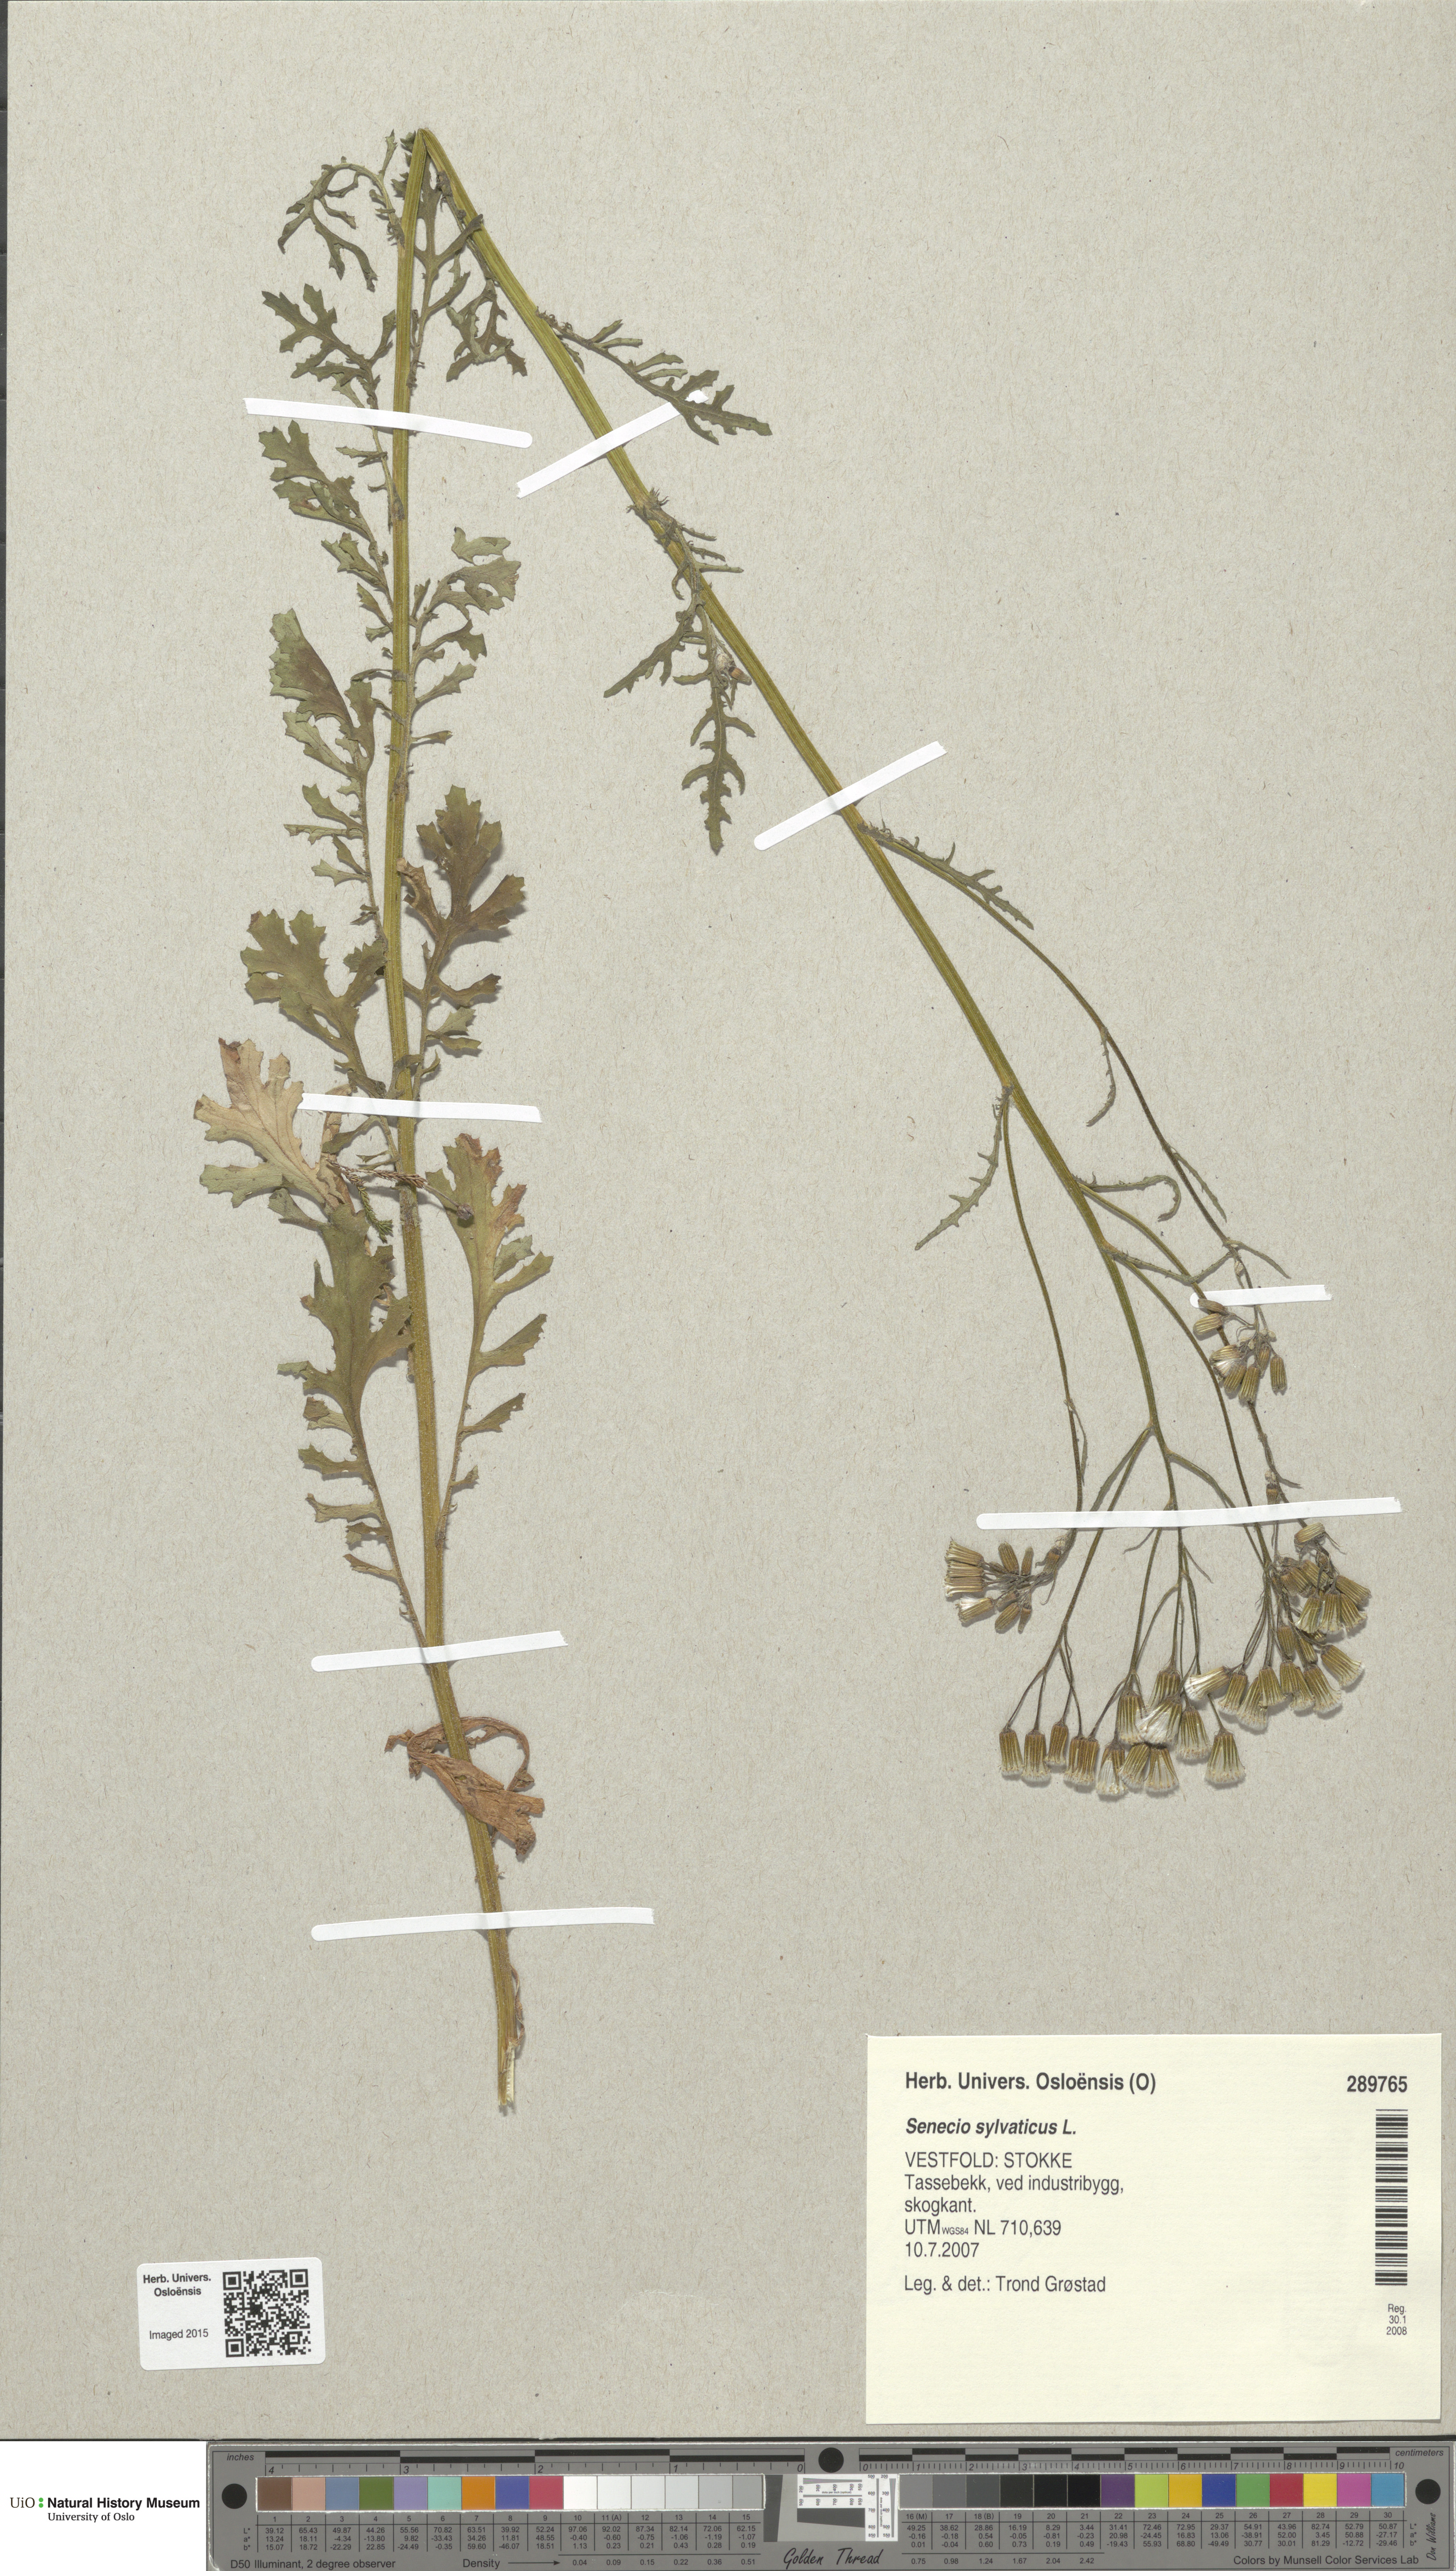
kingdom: Plantae
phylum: Tracheophyta
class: Magnoliopsida
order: Asterales
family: Asteraceae
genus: Senecio
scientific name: Senecio sylvaticus
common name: Woodland ragwort
